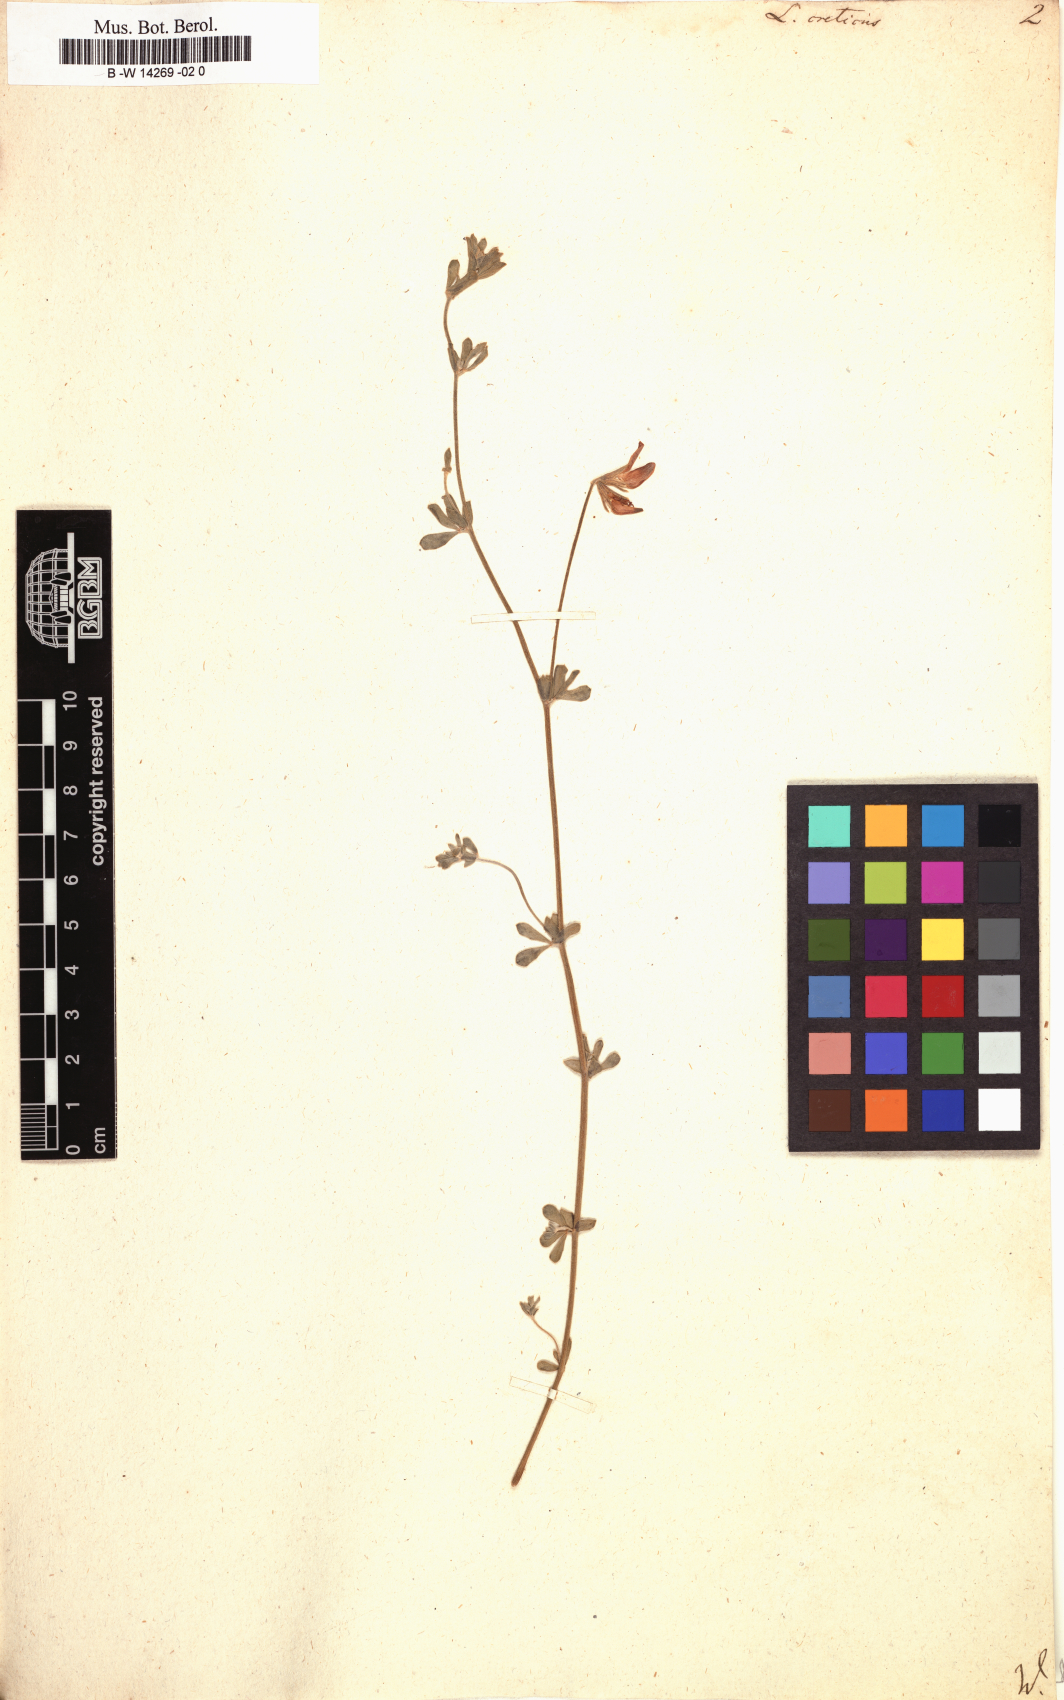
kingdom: Plantae
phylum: Tracheophyta
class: Magnoliopsida
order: Fabales
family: Fabaceae
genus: Lotus
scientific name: Lotus creticus
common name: Cretan bird's-foot trefoil
